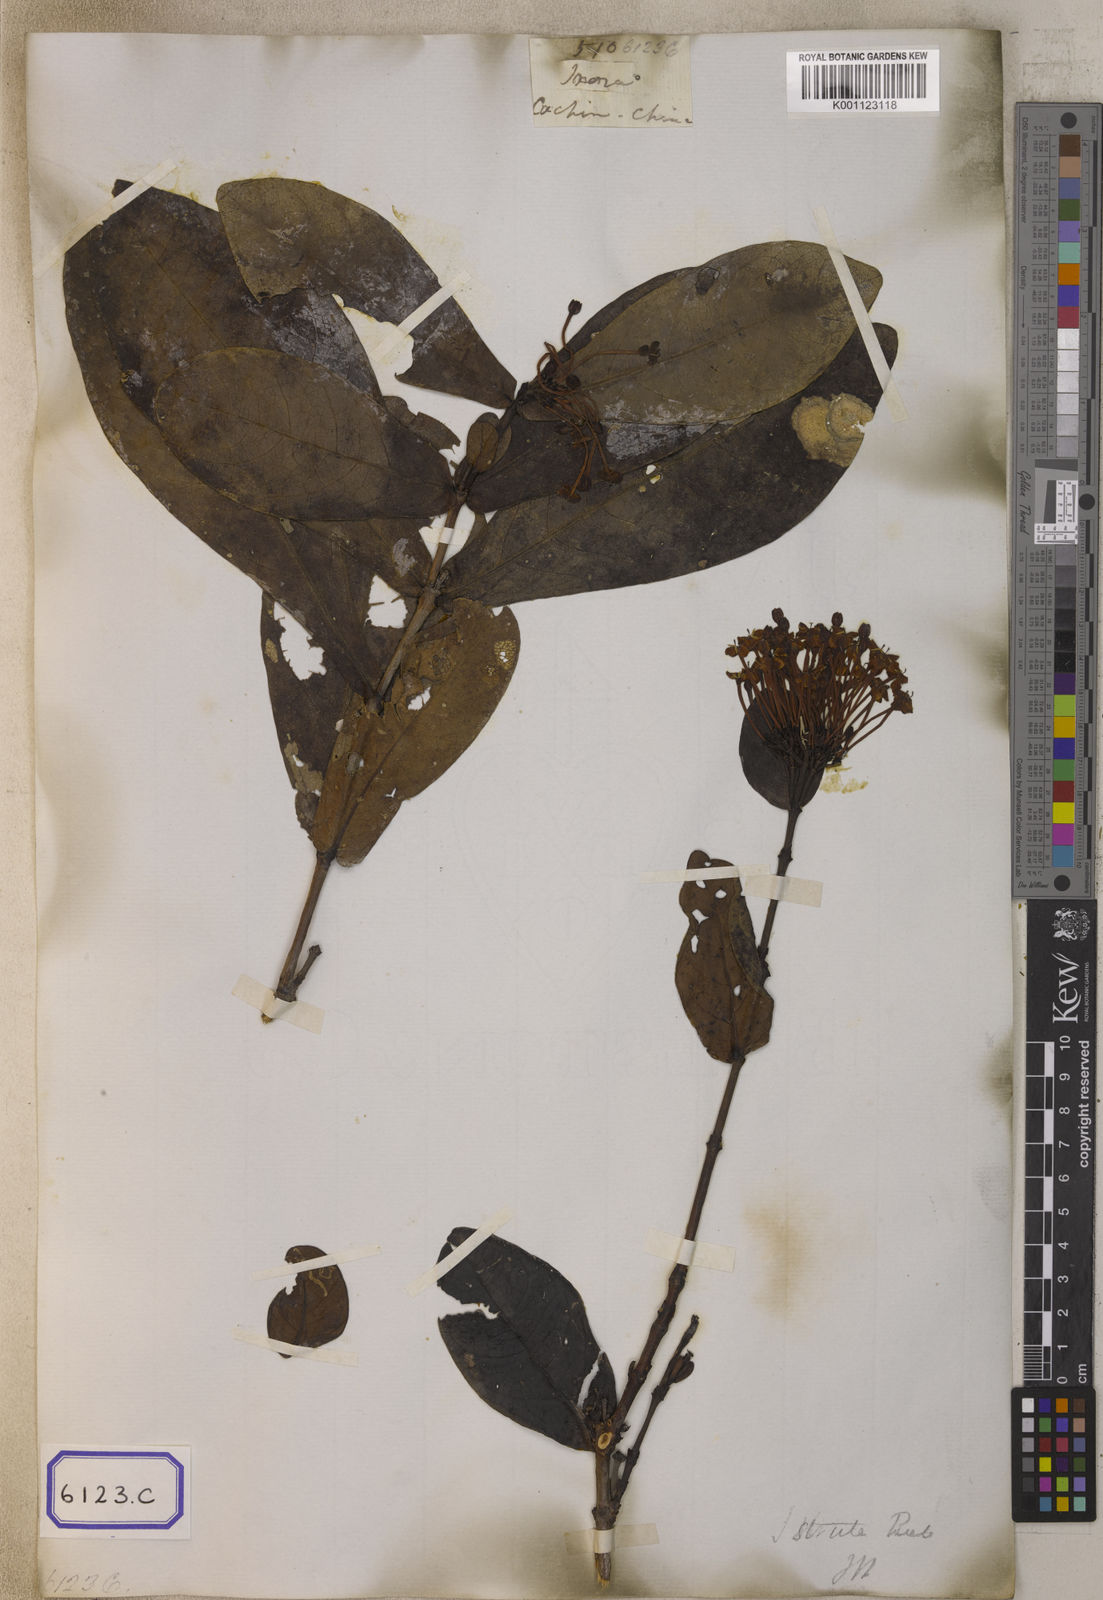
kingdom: Plantae
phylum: Tracheophyta
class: Magnoliopsida
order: Gentianales
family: Rubiaceae
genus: Ixora
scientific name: Ixora
